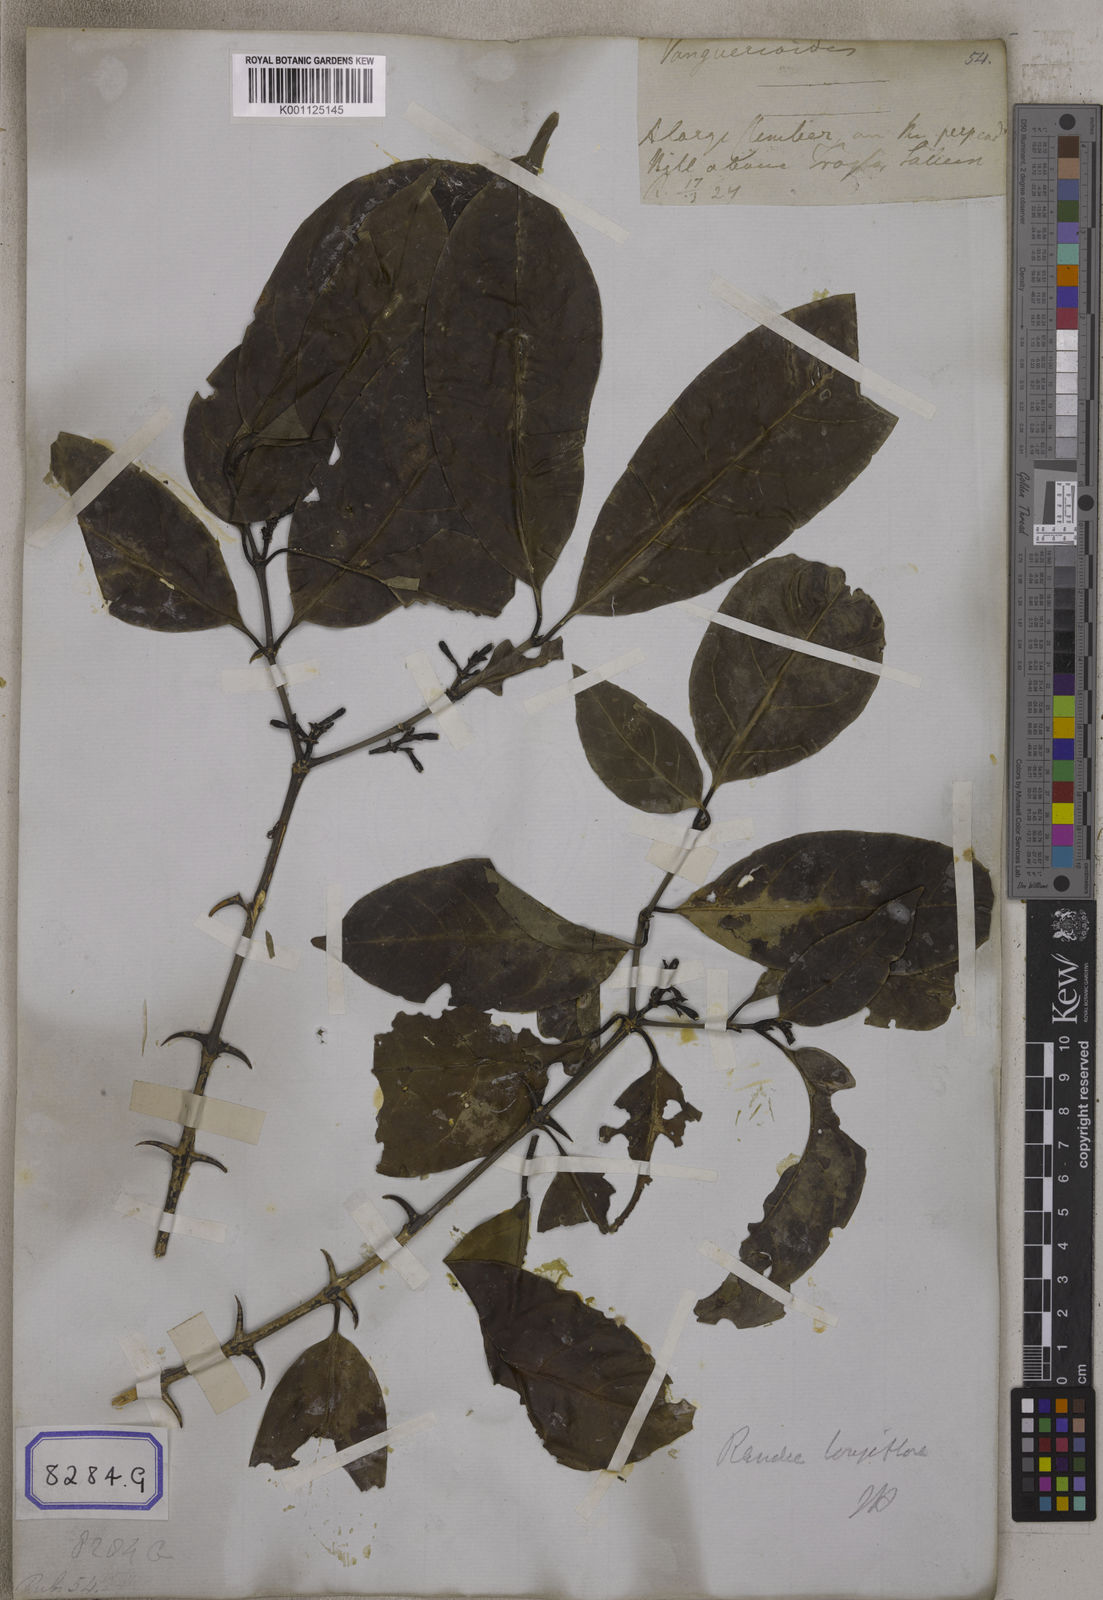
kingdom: Plantae
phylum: Tracheophyta
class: Magnoliopsida
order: Gentianales
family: Rubiaceae
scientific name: Rubiaceae
